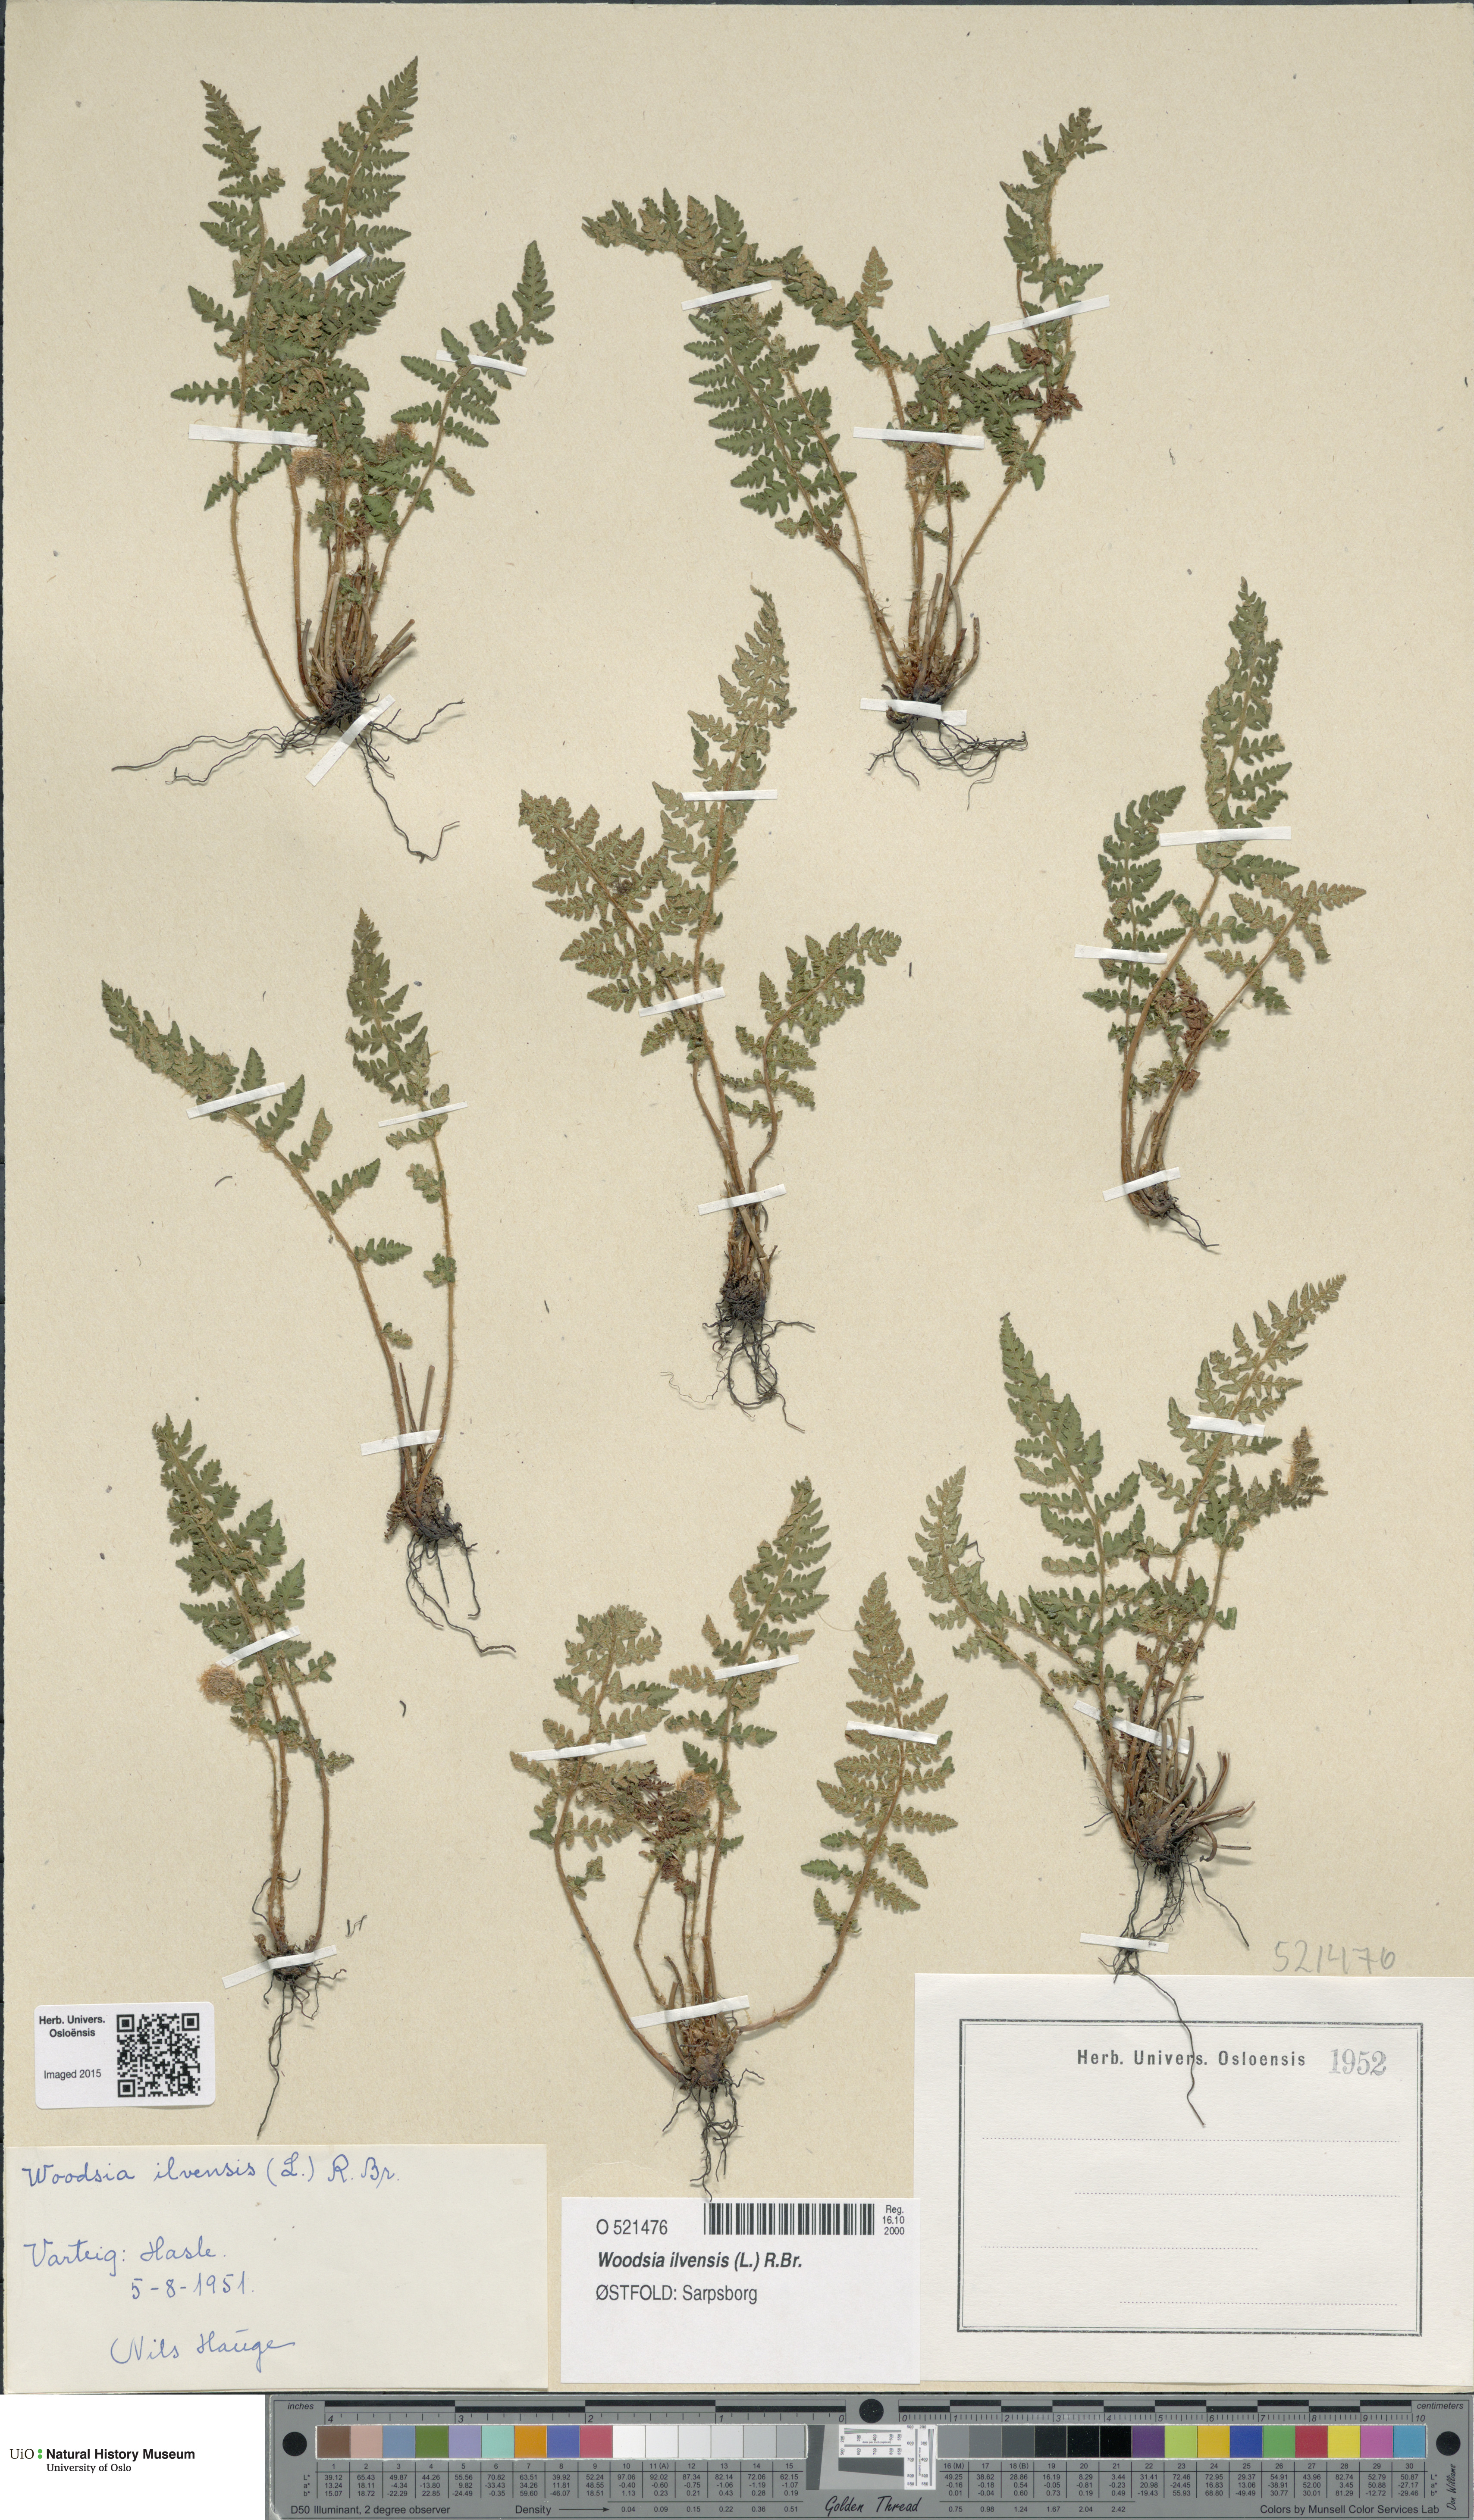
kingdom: Plantae
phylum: Tracheophyta
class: Polypodiopsida
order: Polypodiales
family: Woodsiaceae
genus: Woodsia
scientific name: Woodsia ilvensis
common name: Fragrant woodsia
